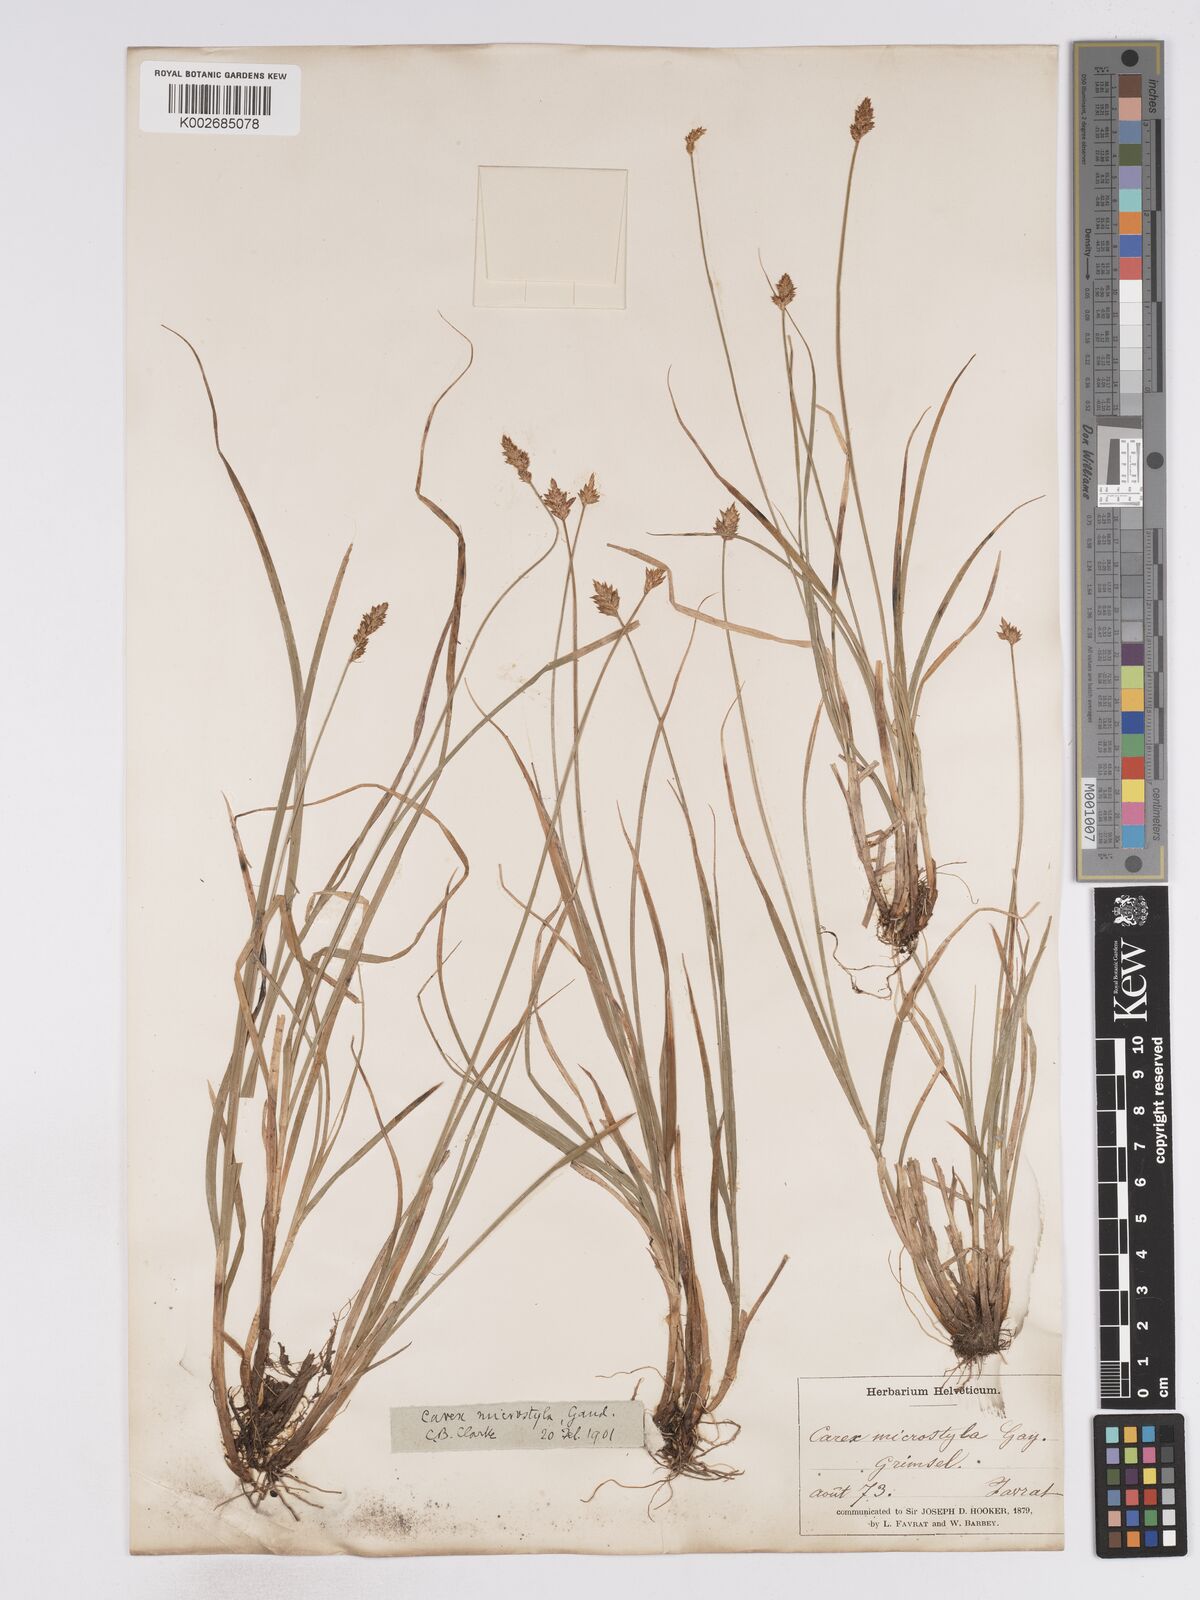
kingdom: Plantae
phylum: Tracheophyta
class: Liliopsida
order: Poales
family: Cyperaceae
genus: Carex
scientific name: Carex microstyla
